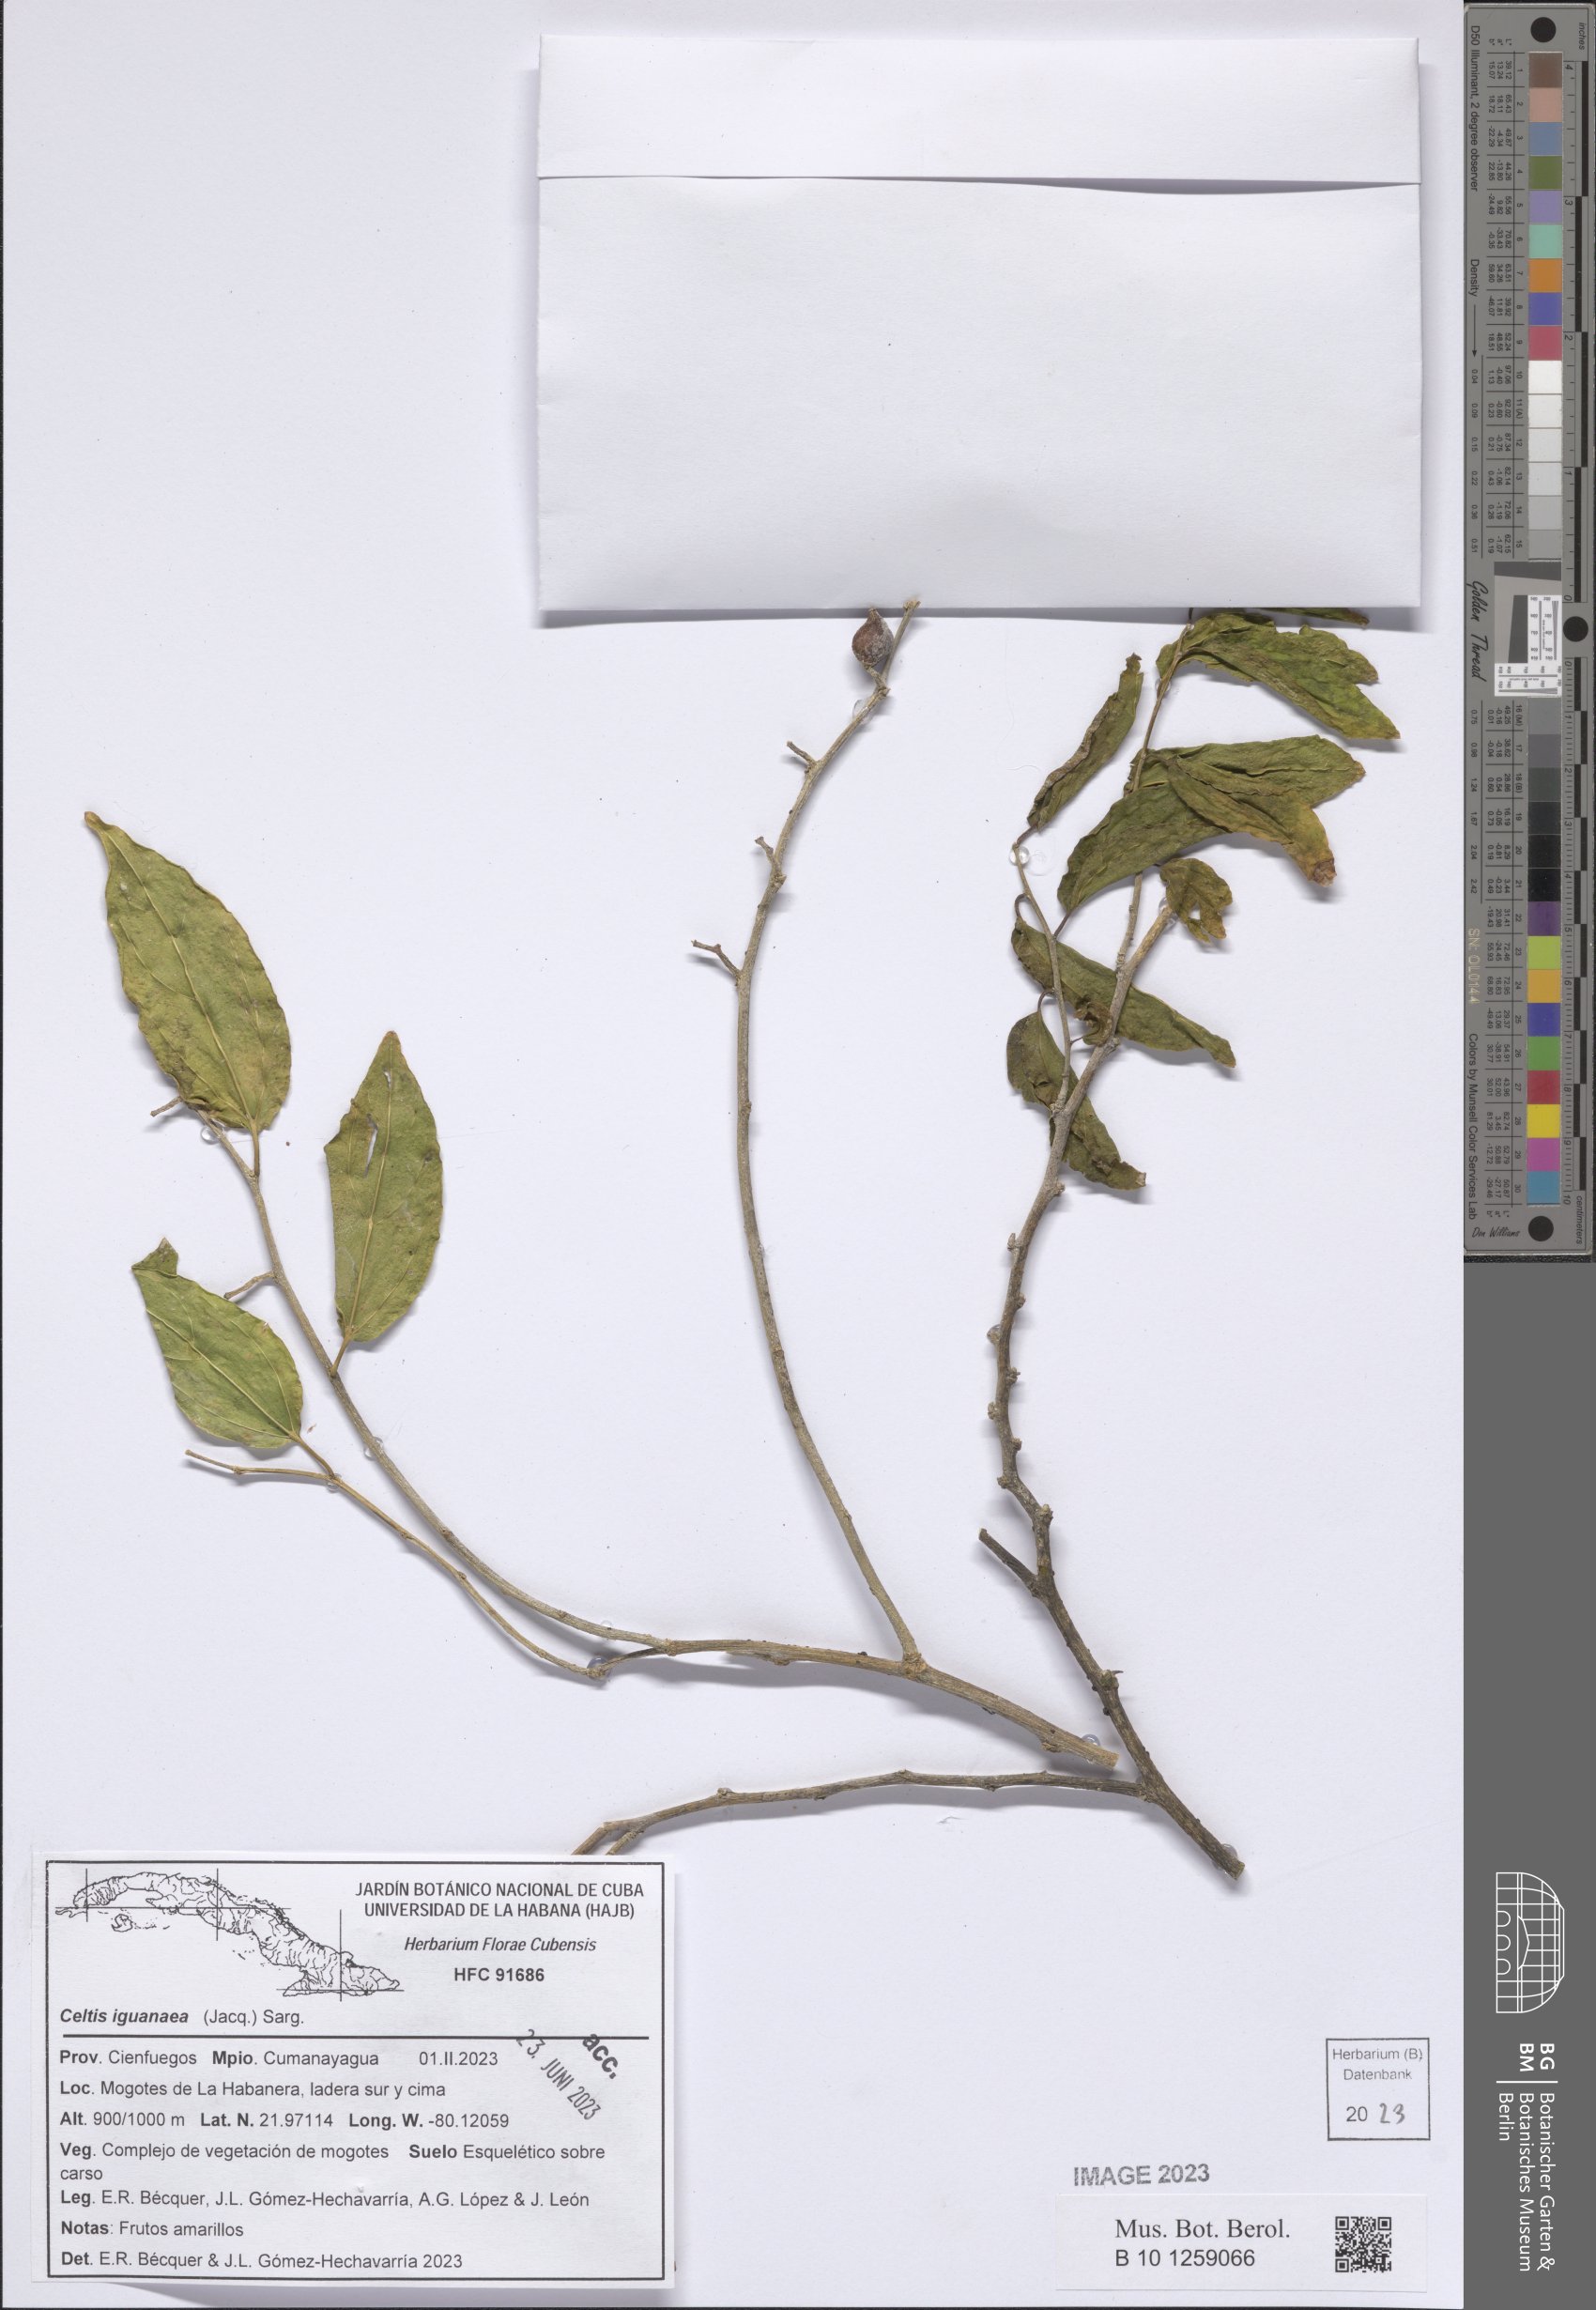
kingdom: Plantae
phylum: Tracheophyta
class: Magnoliopsida
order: Rosales
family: Cannabaceae
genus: Celtis
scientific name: Celtis iguanaea
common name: Iguana hackberry
